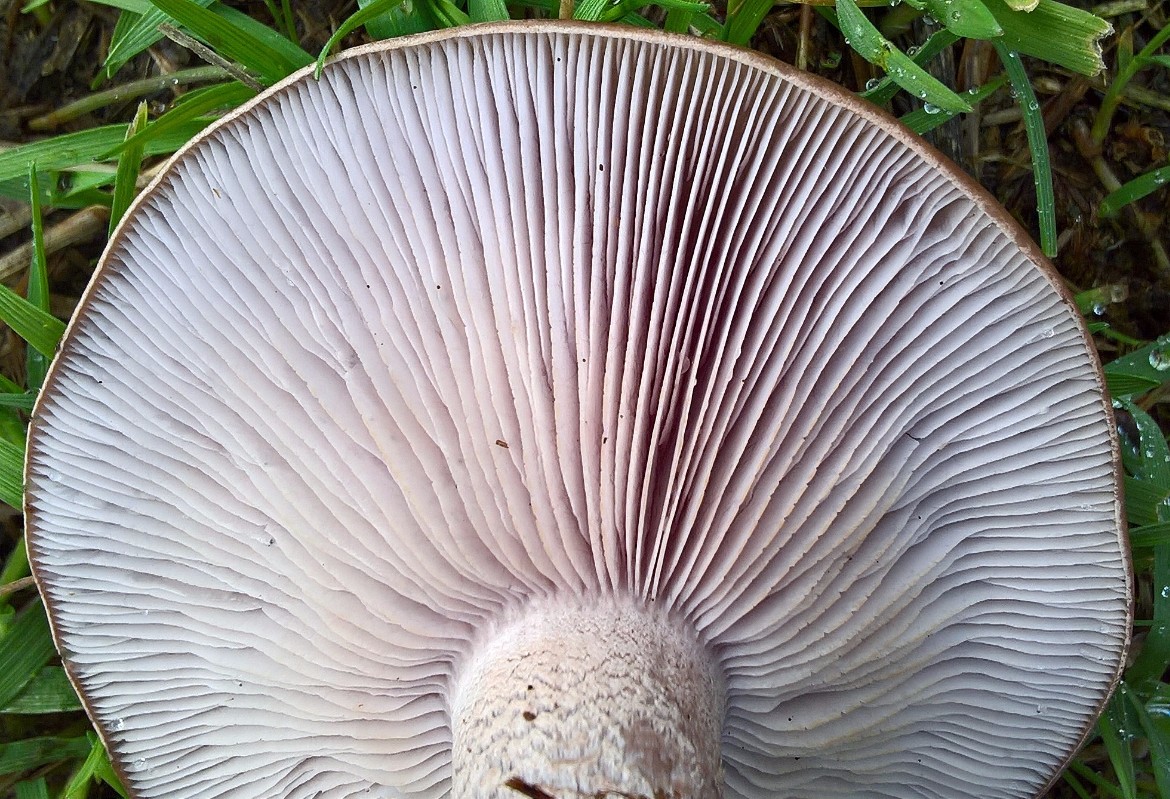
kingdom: Fungi
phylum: Basidiomycota
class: Agaricomycetes
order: Agaricales
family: Tricholomataceae
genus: Lepista
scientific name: Lepista nuda
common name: violet hekseringshat
